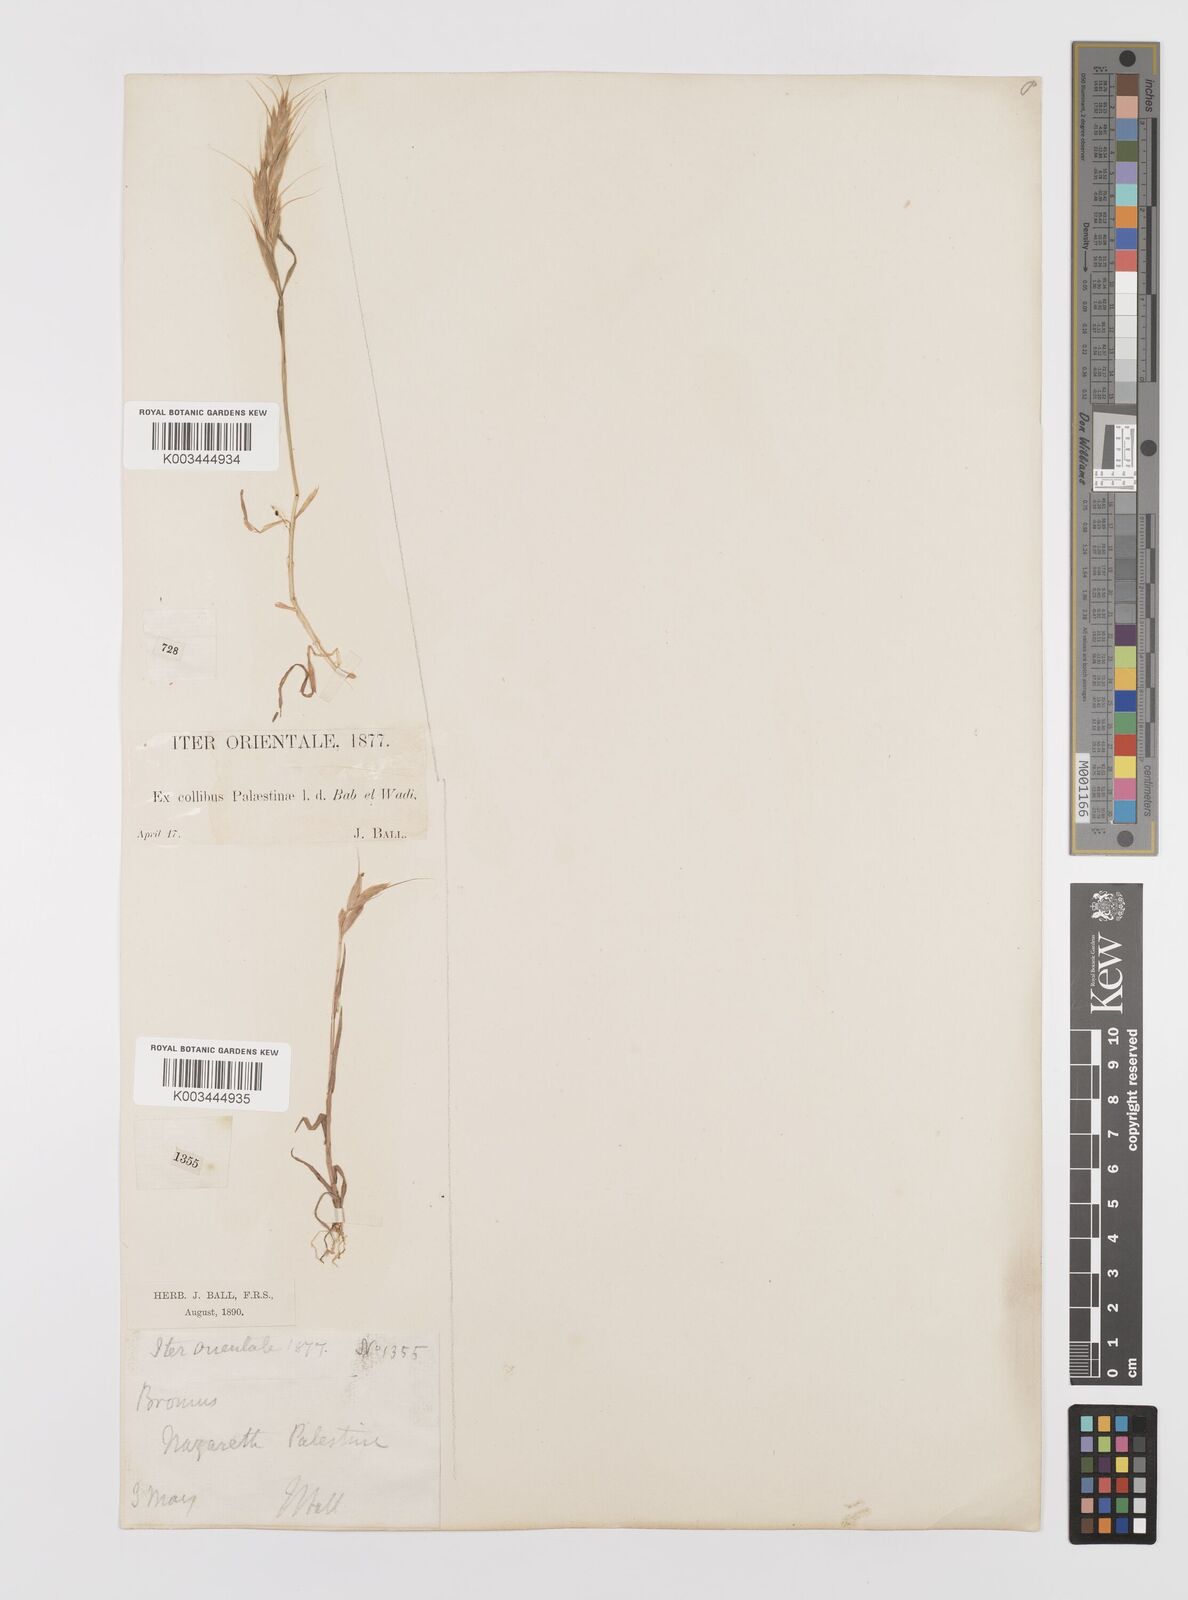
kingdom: Plantae
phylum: Tracheophyta
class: Liliopsida
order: Poales
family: Poaceae
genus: Bromus
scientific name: Bromus lanceolatus
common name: Mediterranean brome
